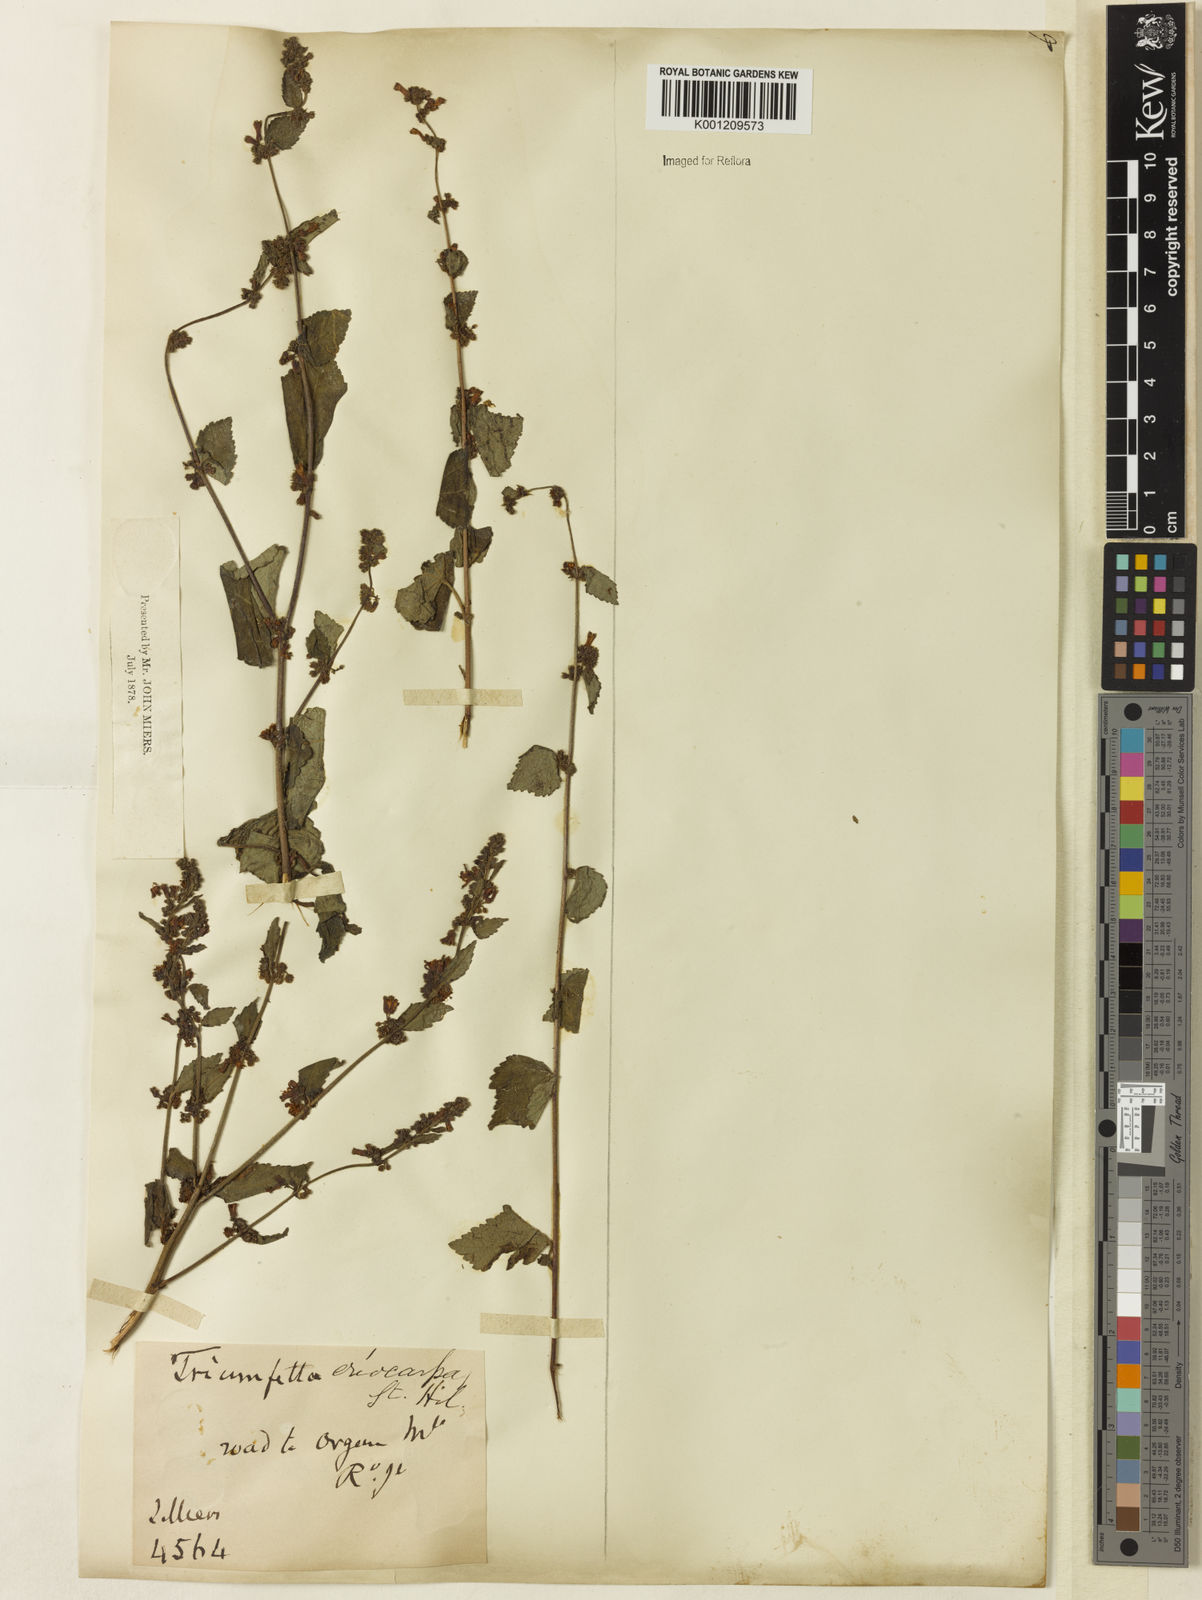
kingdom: Plantae
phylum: Tracheophyta
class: Magnoliopsida
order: Malvales
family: Malvaceae
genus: Triumfetta
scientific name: Triumfetta rhomboidea
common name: Diamond burbark
